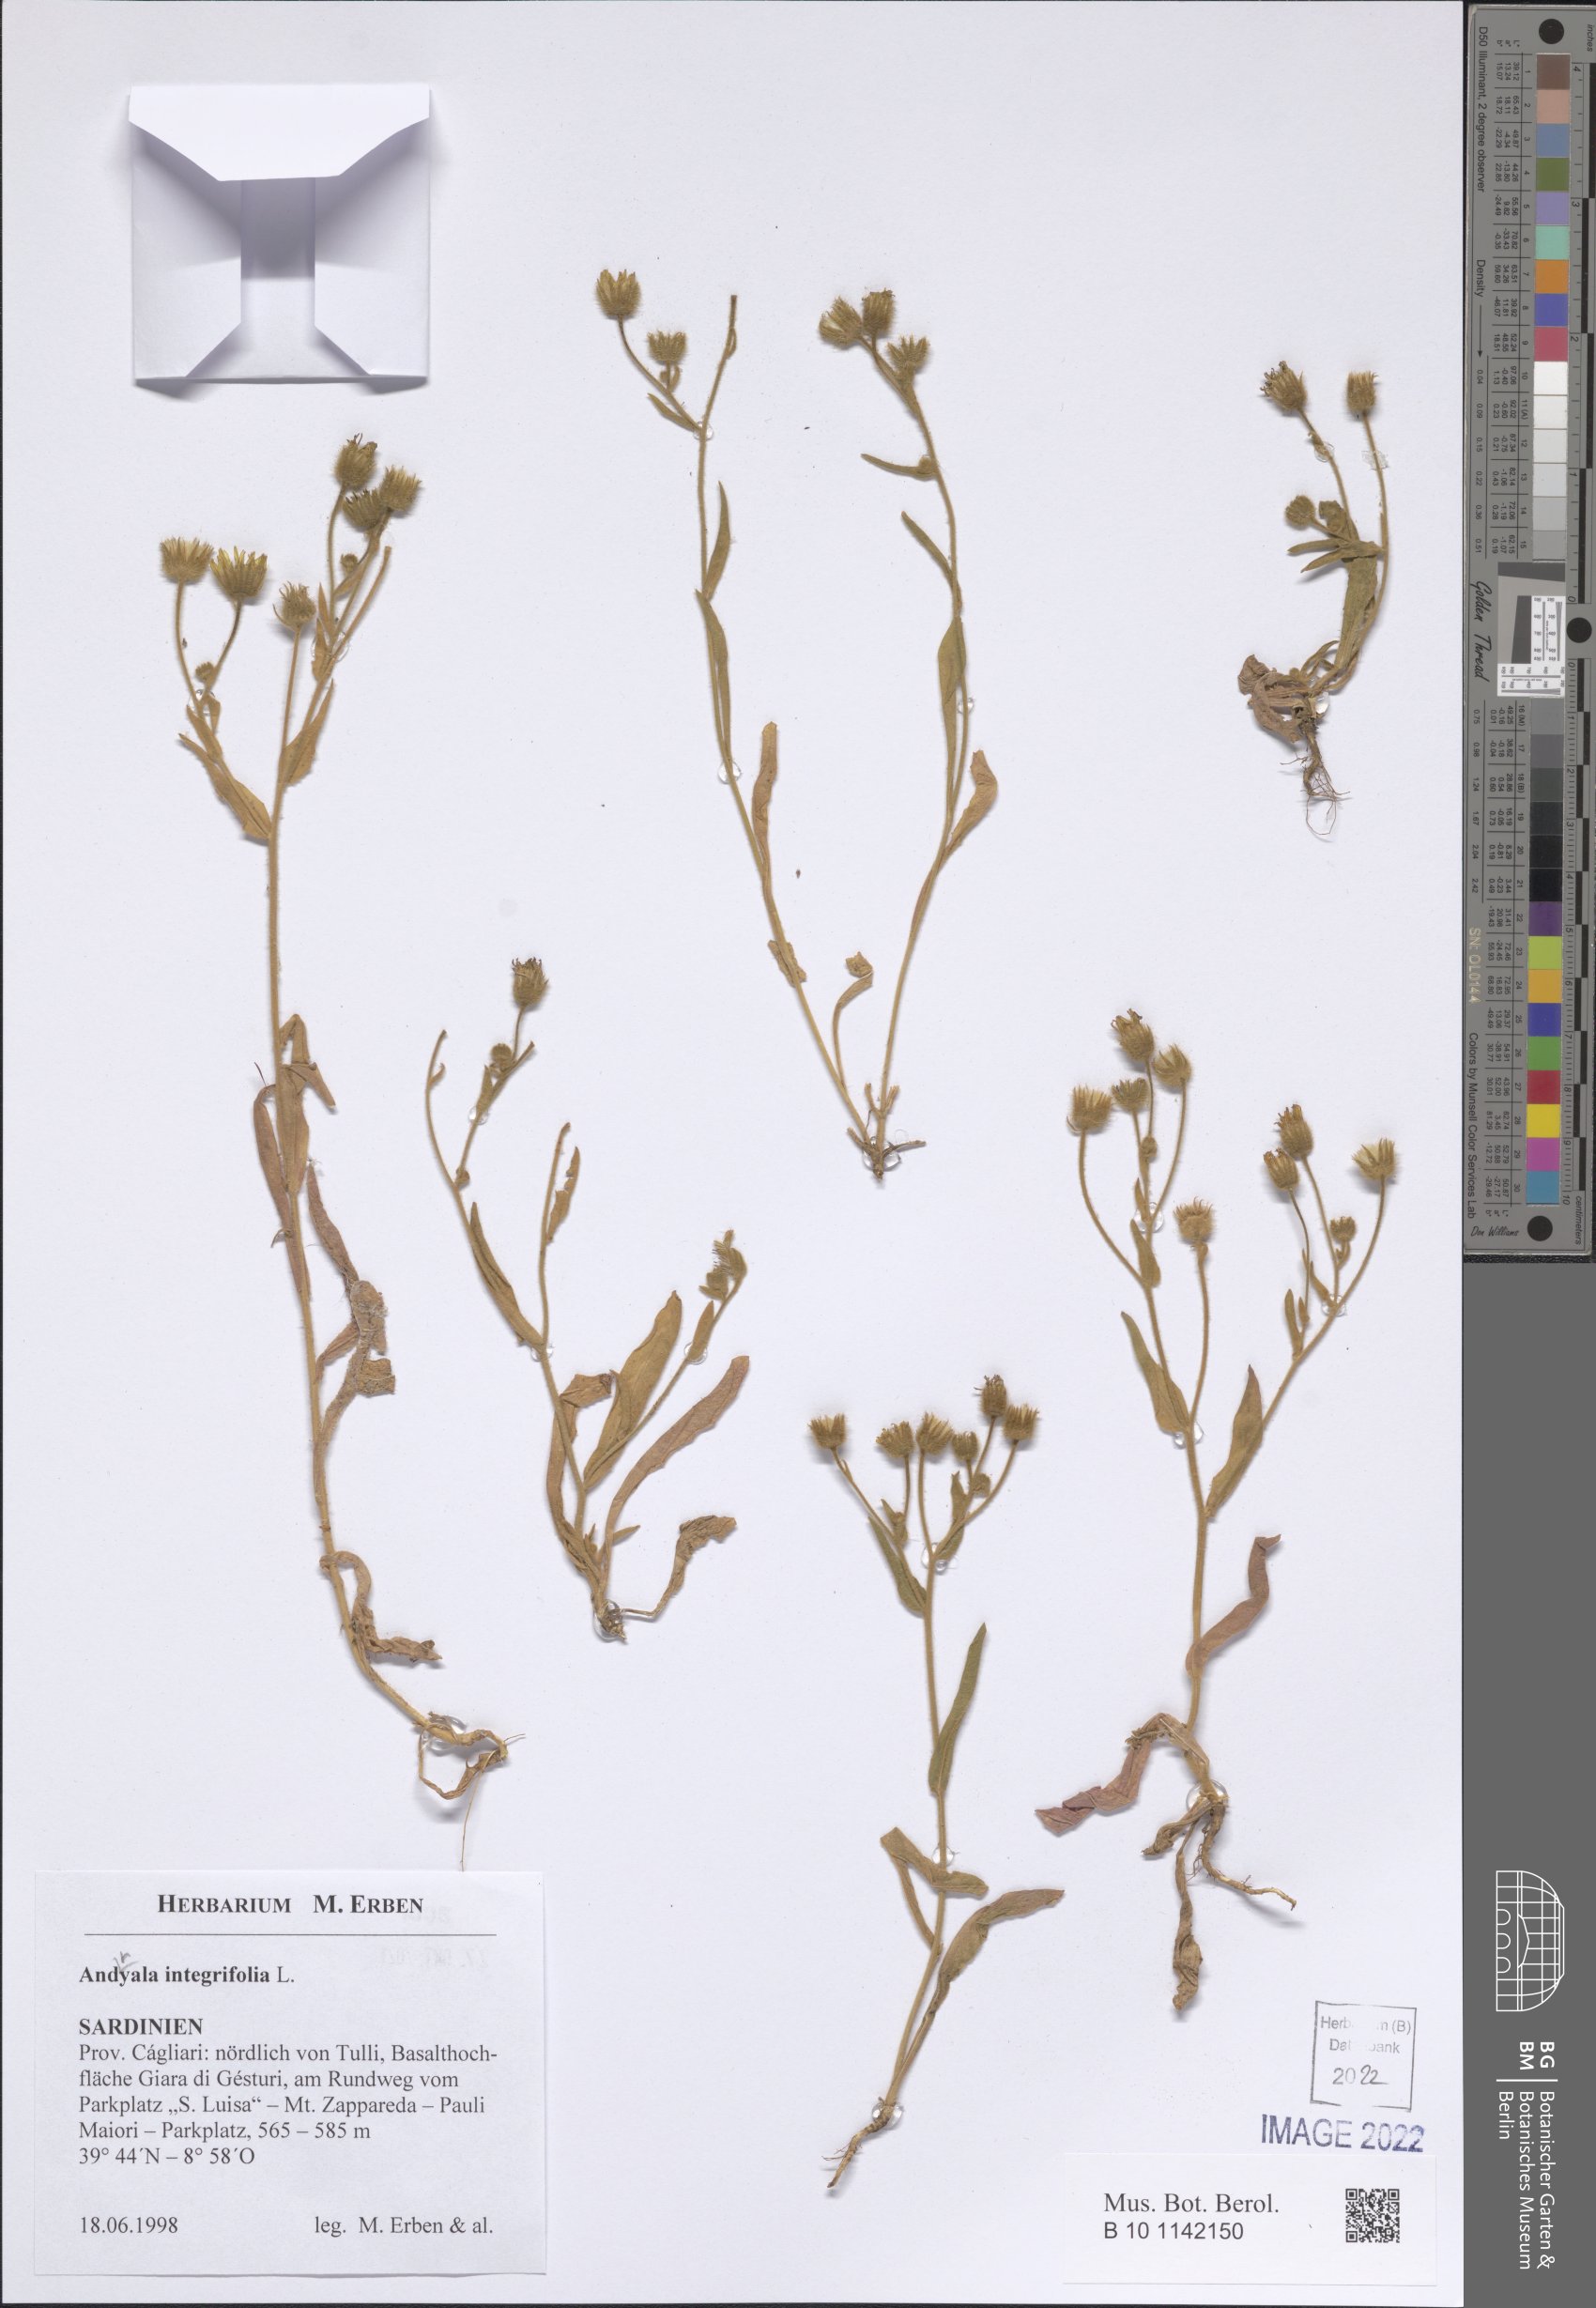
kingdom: Plantae
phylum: Tracheophyta
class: Magnoliopsida
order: Asterales
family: Asteraceae
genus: Andryala
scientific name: Andryala integrifolia
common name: Common andryala
